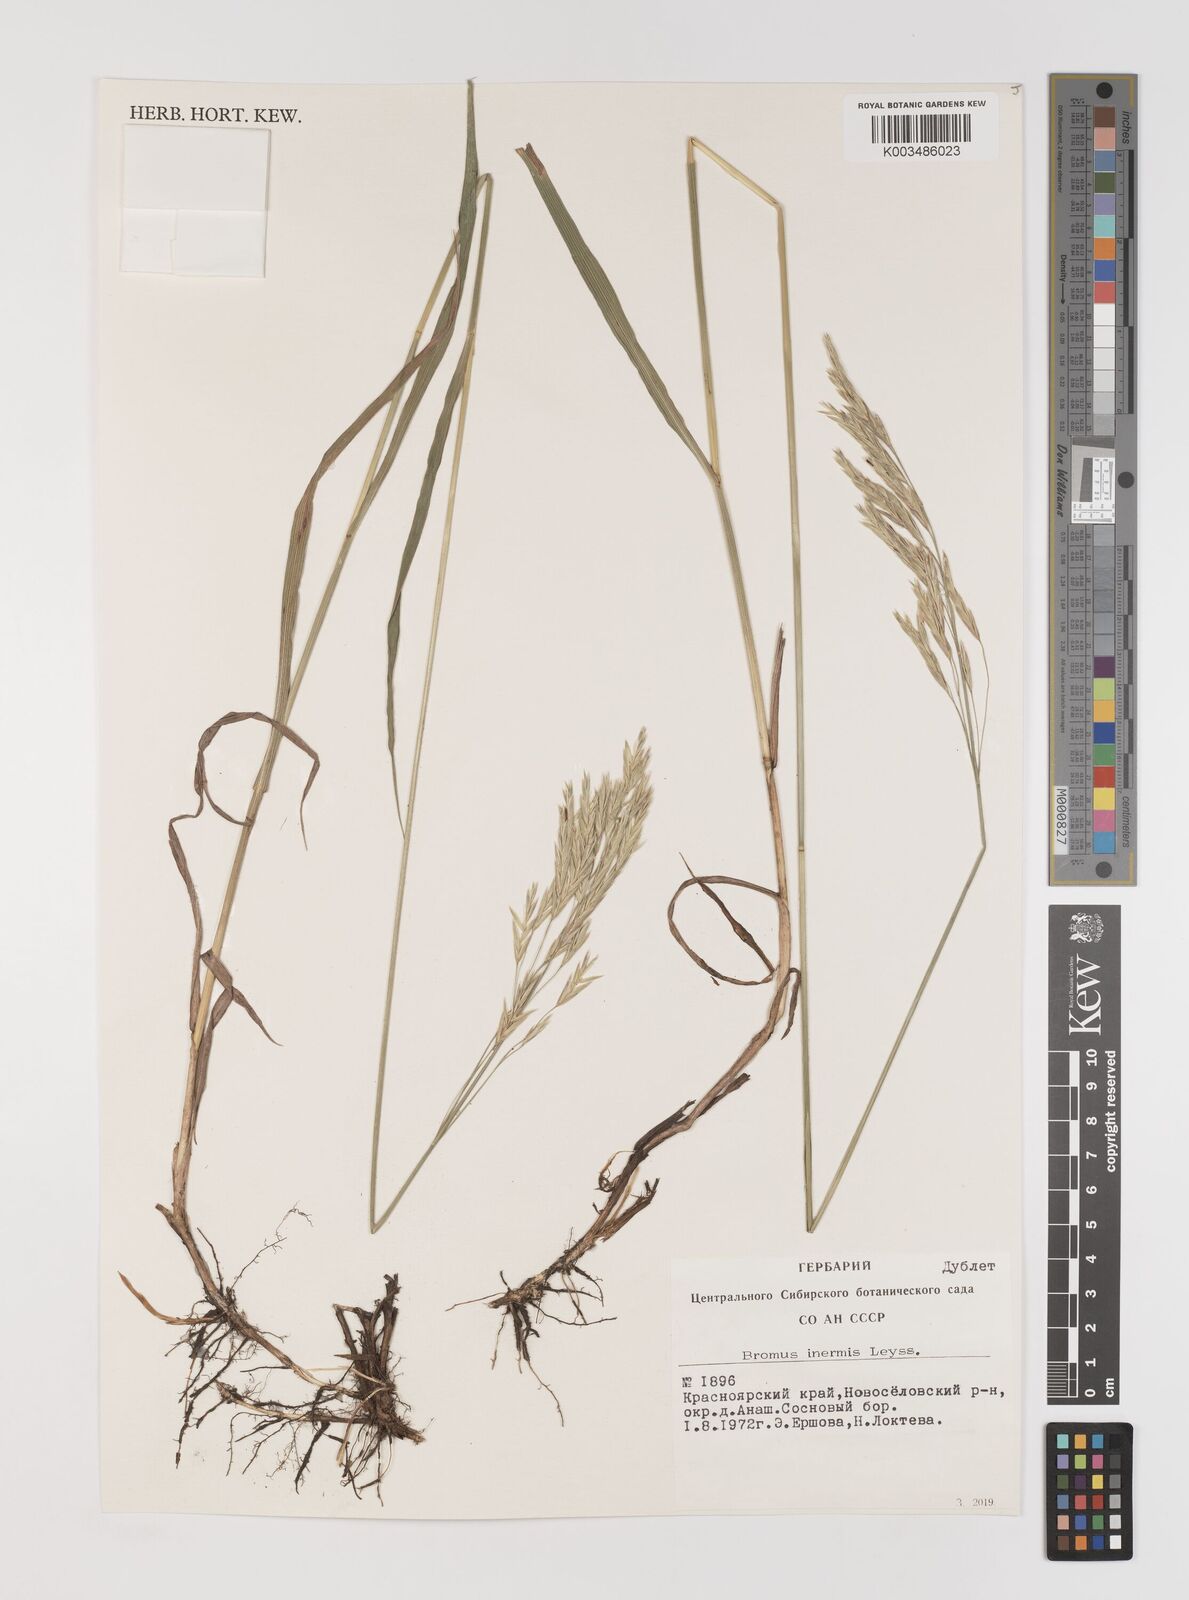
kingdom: Plantae
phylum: Tracheophyta
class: Liliopsida
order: Poales
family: Poaceae
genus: Bromus
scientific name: Bromus inermis
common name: Smooth brome
